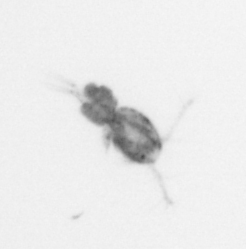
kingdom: Animalia
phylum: Arthropoda
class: Copepoda
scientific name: Copepoda
